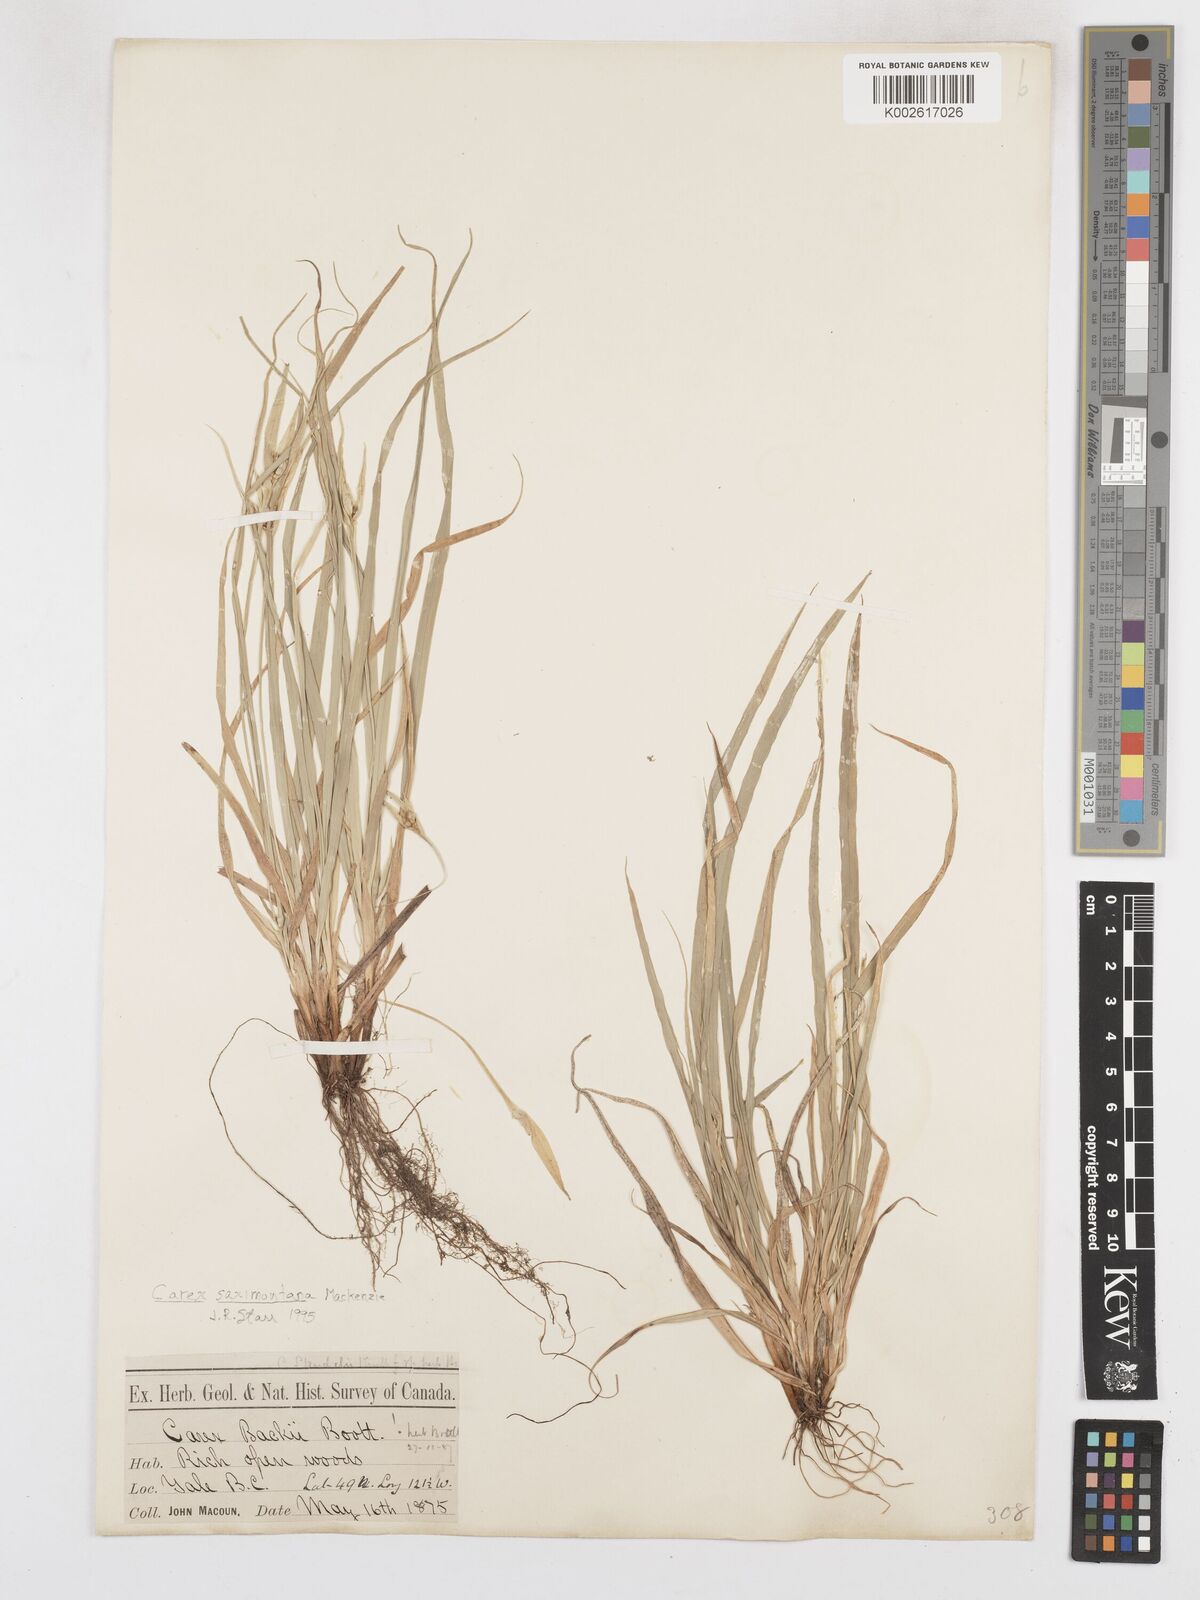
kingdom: Plantae
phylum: Tracheophyta
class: Liliopsida
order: Poales
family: Cyperaceae
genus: Carex
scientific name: Carex saximontana
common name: Rocky mountain sedge
